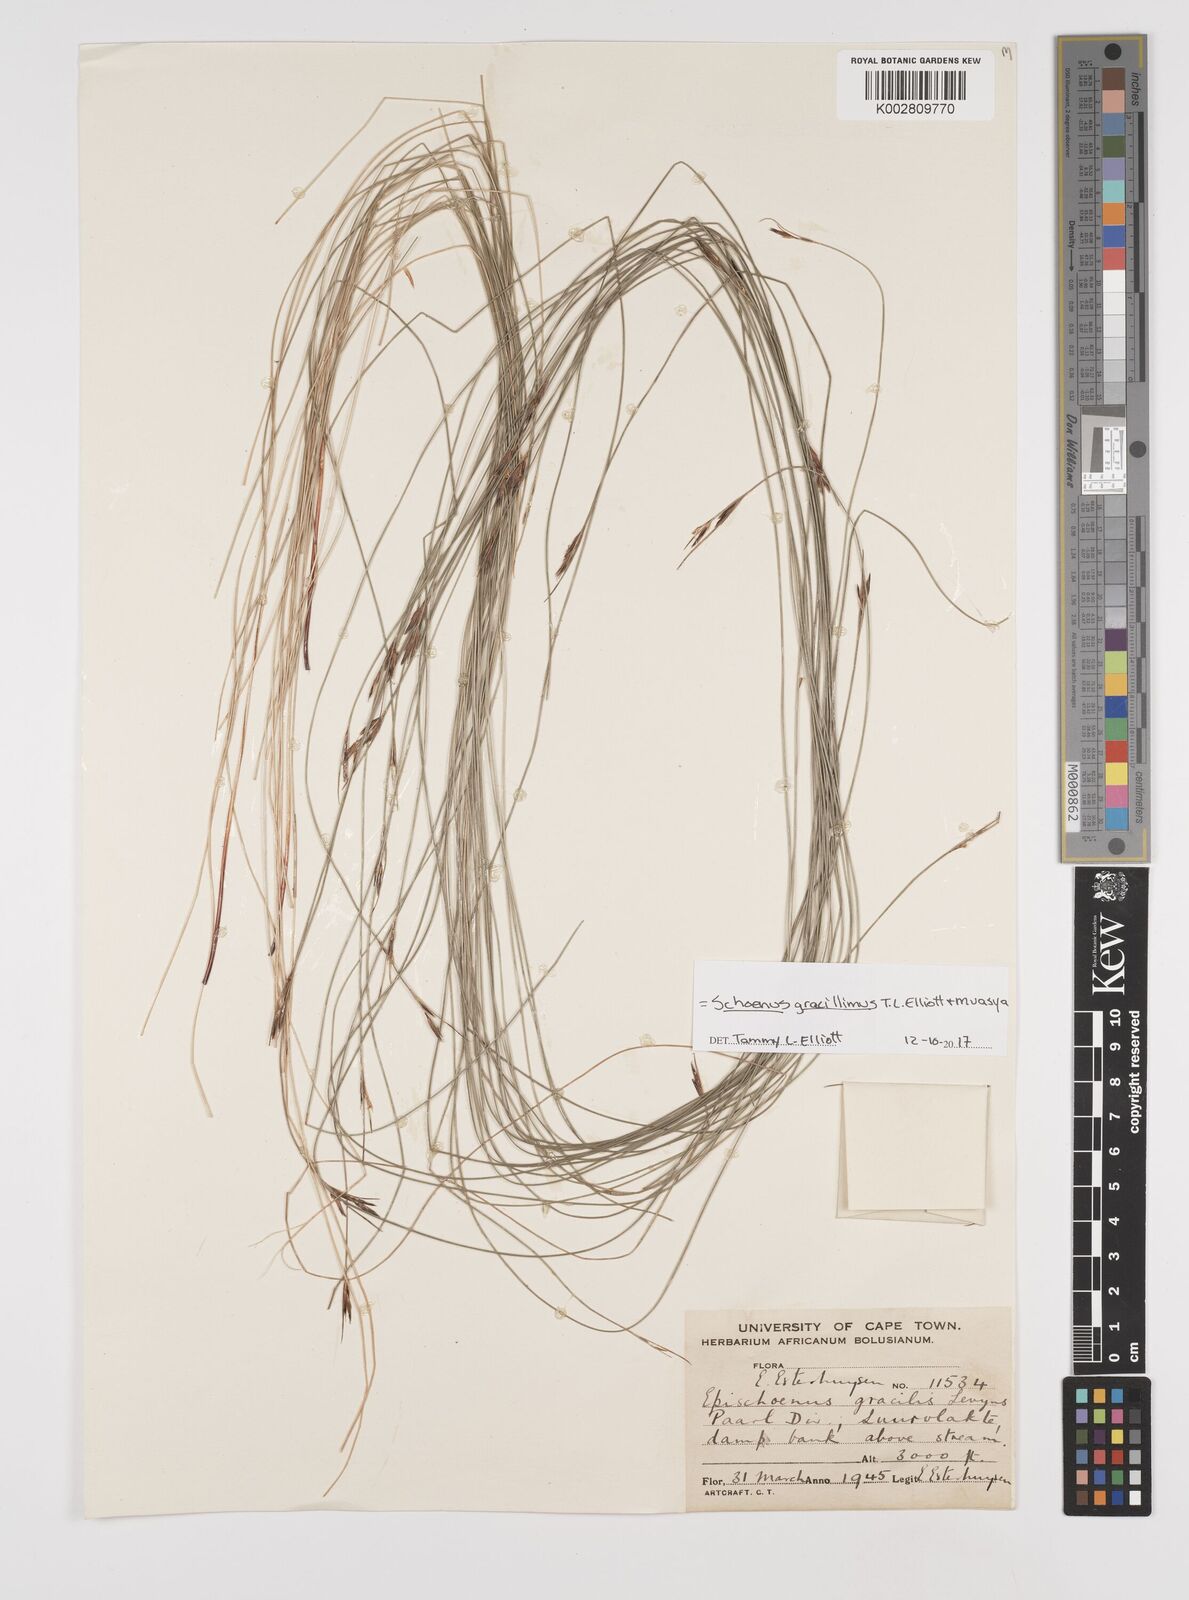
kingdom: Plantae
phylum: Tracheophyta
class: Liliopsida
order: Poales
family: Cyperaceae
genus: Rhynchospora
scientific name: Rhynchospora racemosa
